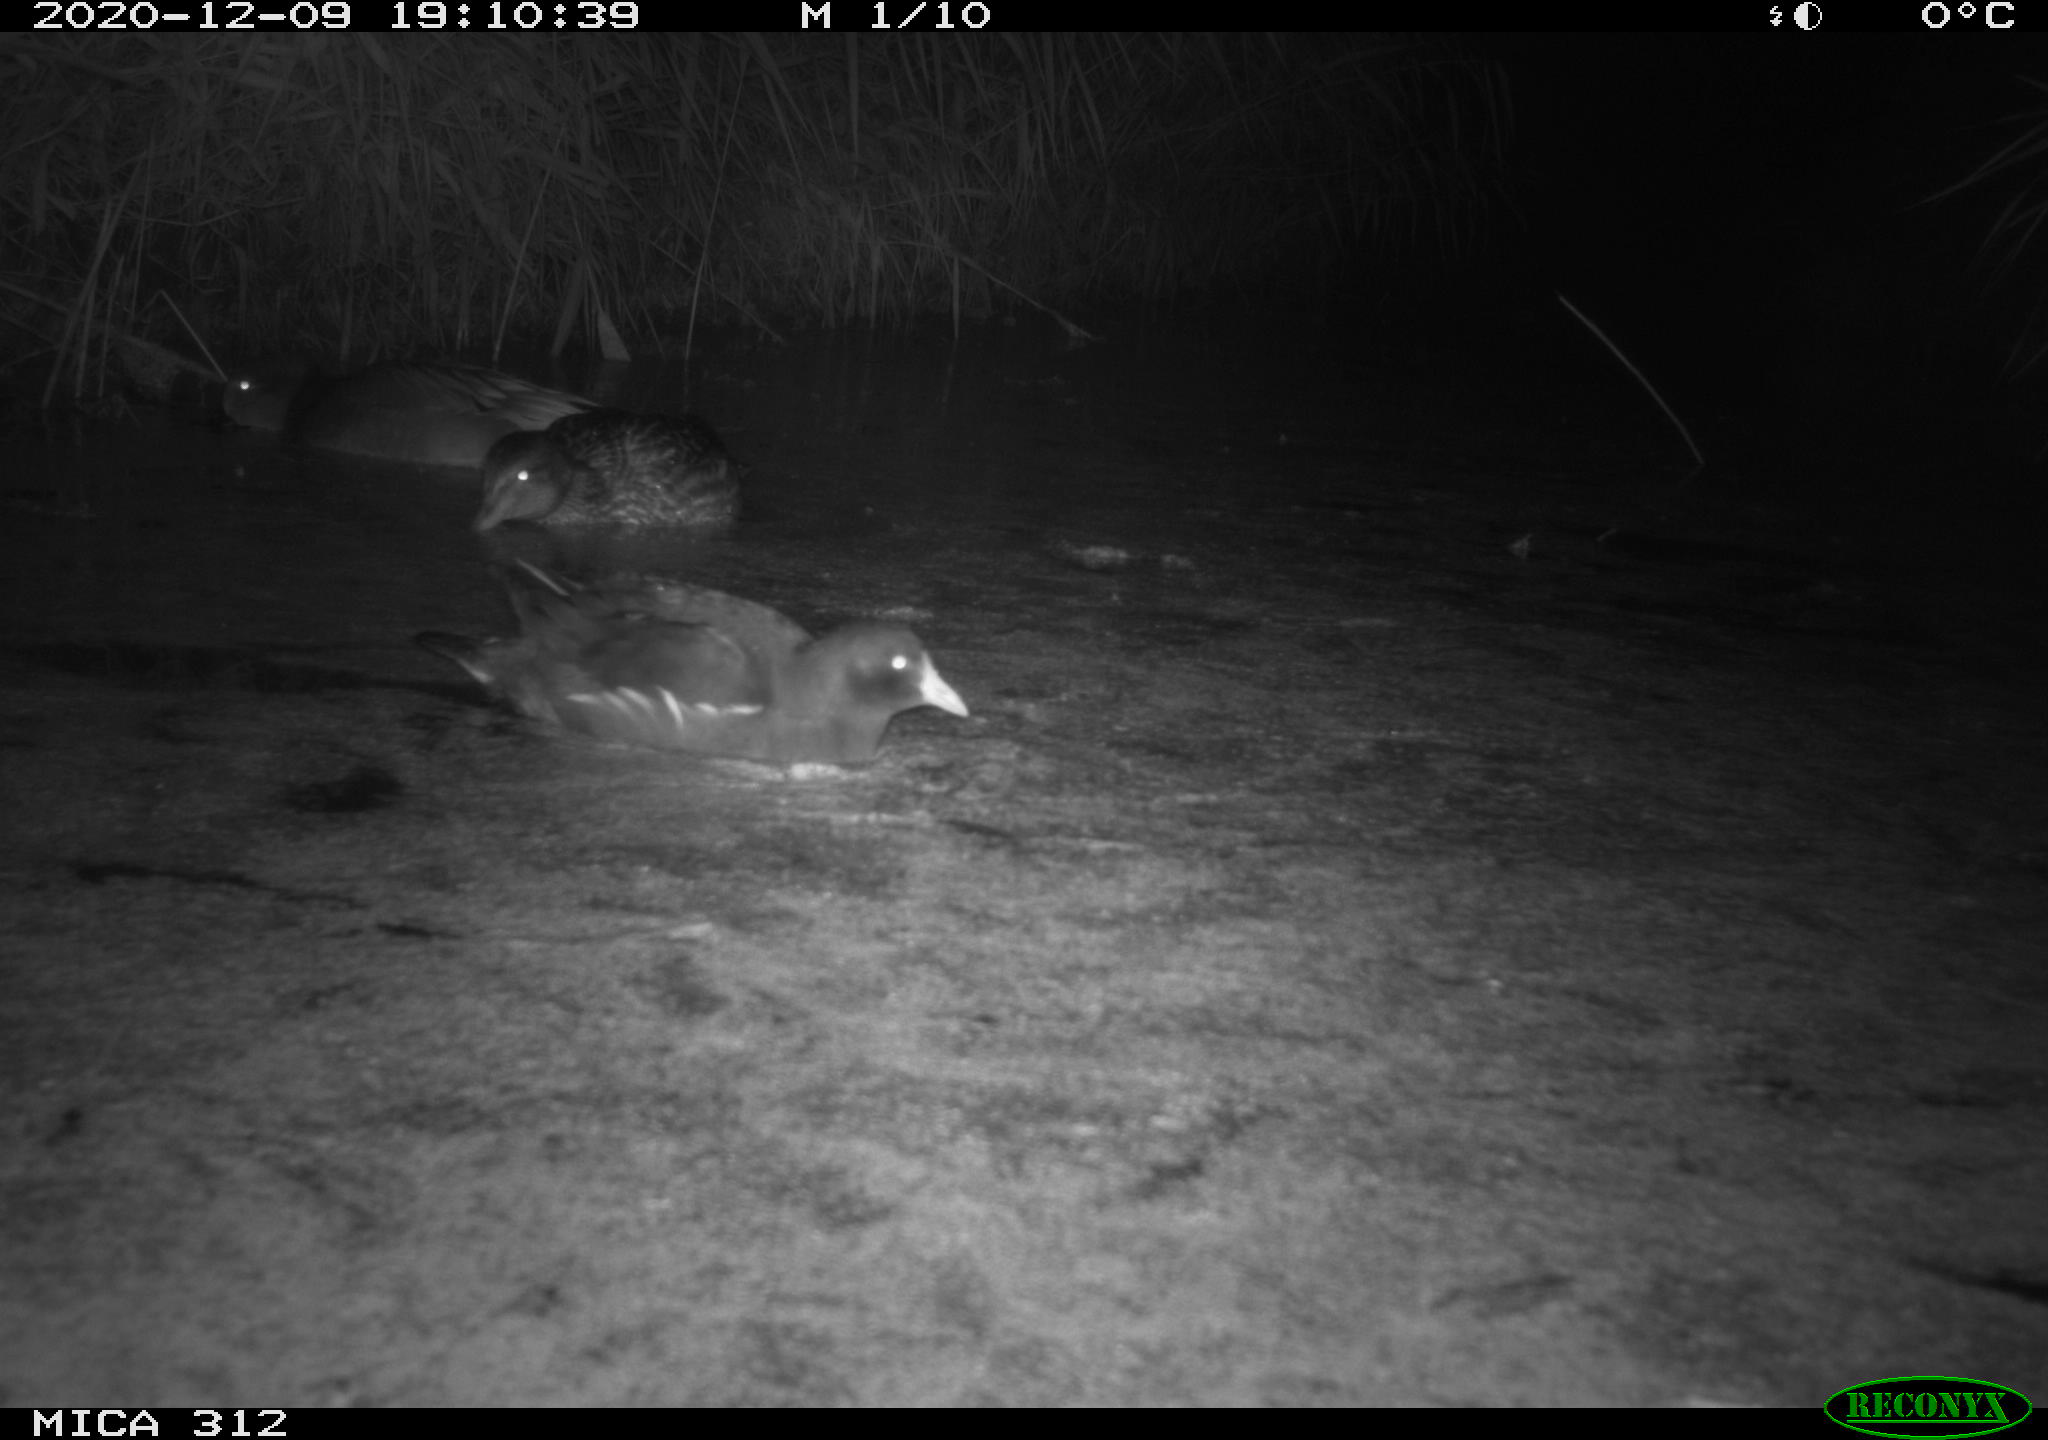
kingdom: Animalia
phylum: Chordata
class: Aves
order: Gruiformes
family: Rallidae
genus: Gallinula
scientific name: Gallinula chloropus
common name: Common moorhen
